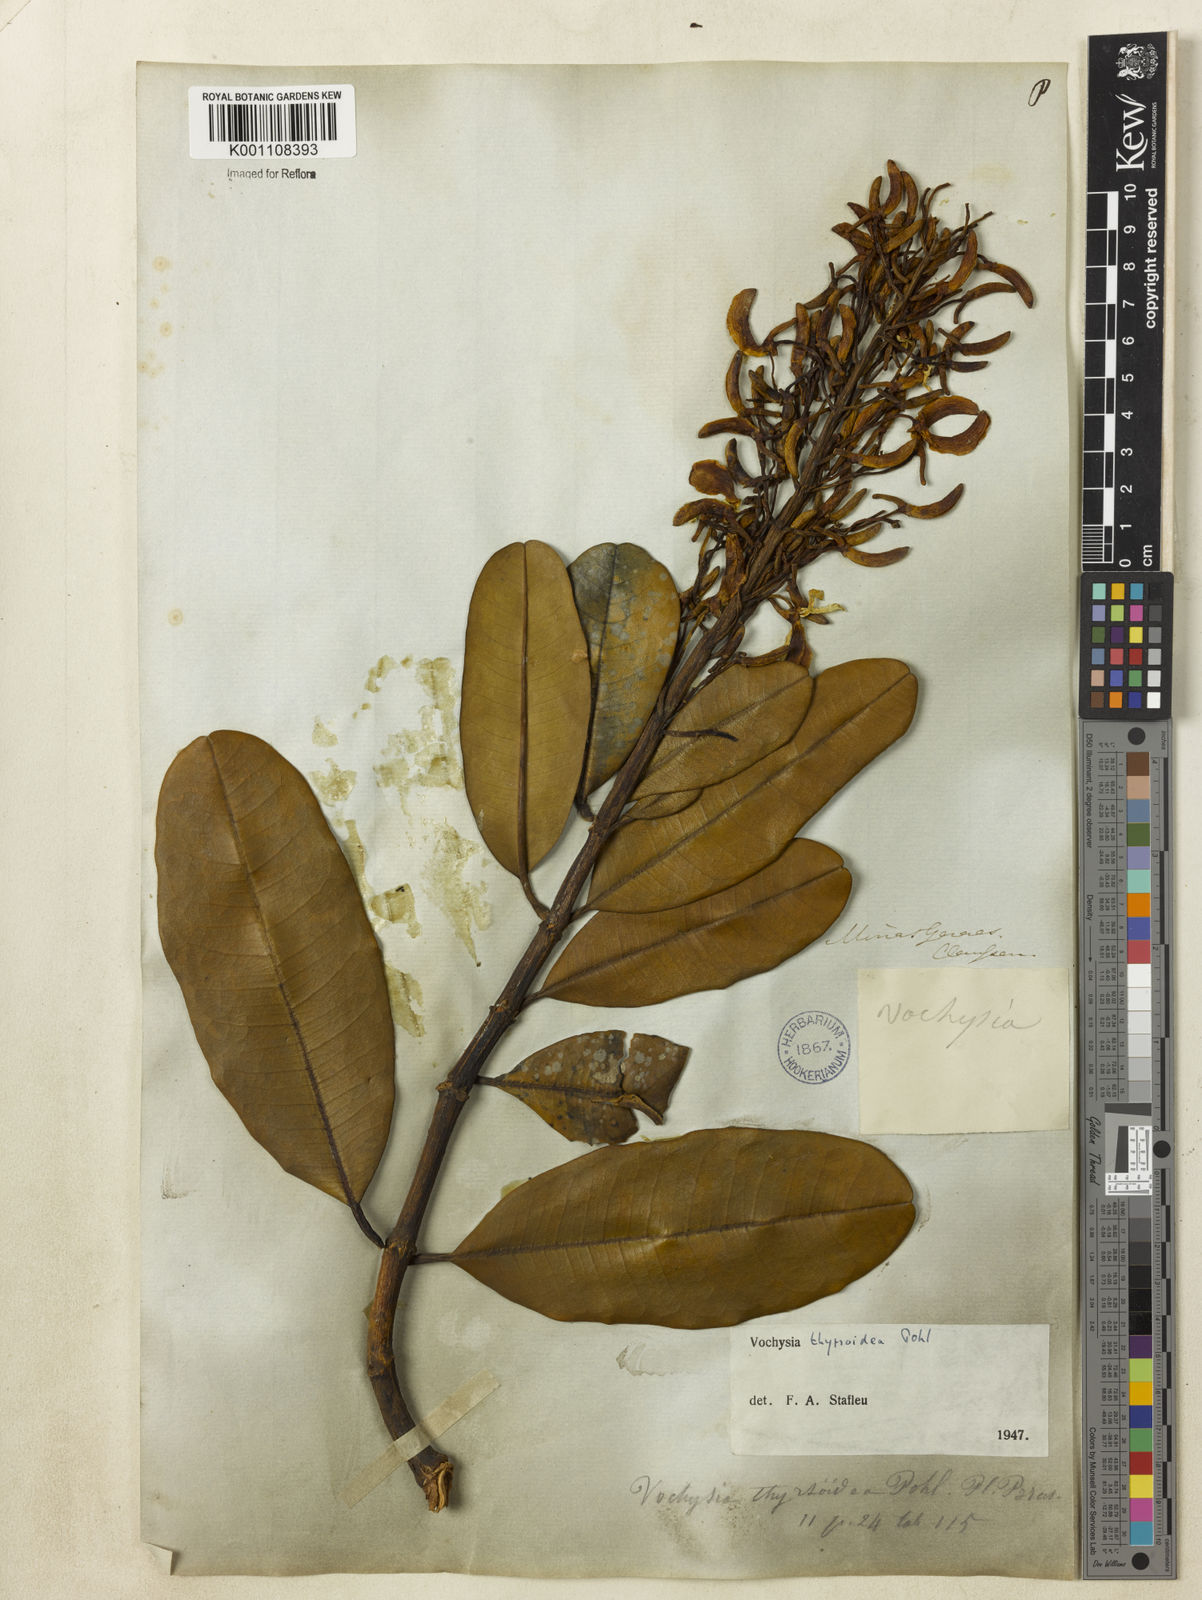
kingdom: Plantae
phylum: Tracheophyta
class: Magnoliopsida
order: Myrtales
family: Vochysiaceae
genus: Vochysia
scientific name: Vochysia thyrsoidea
